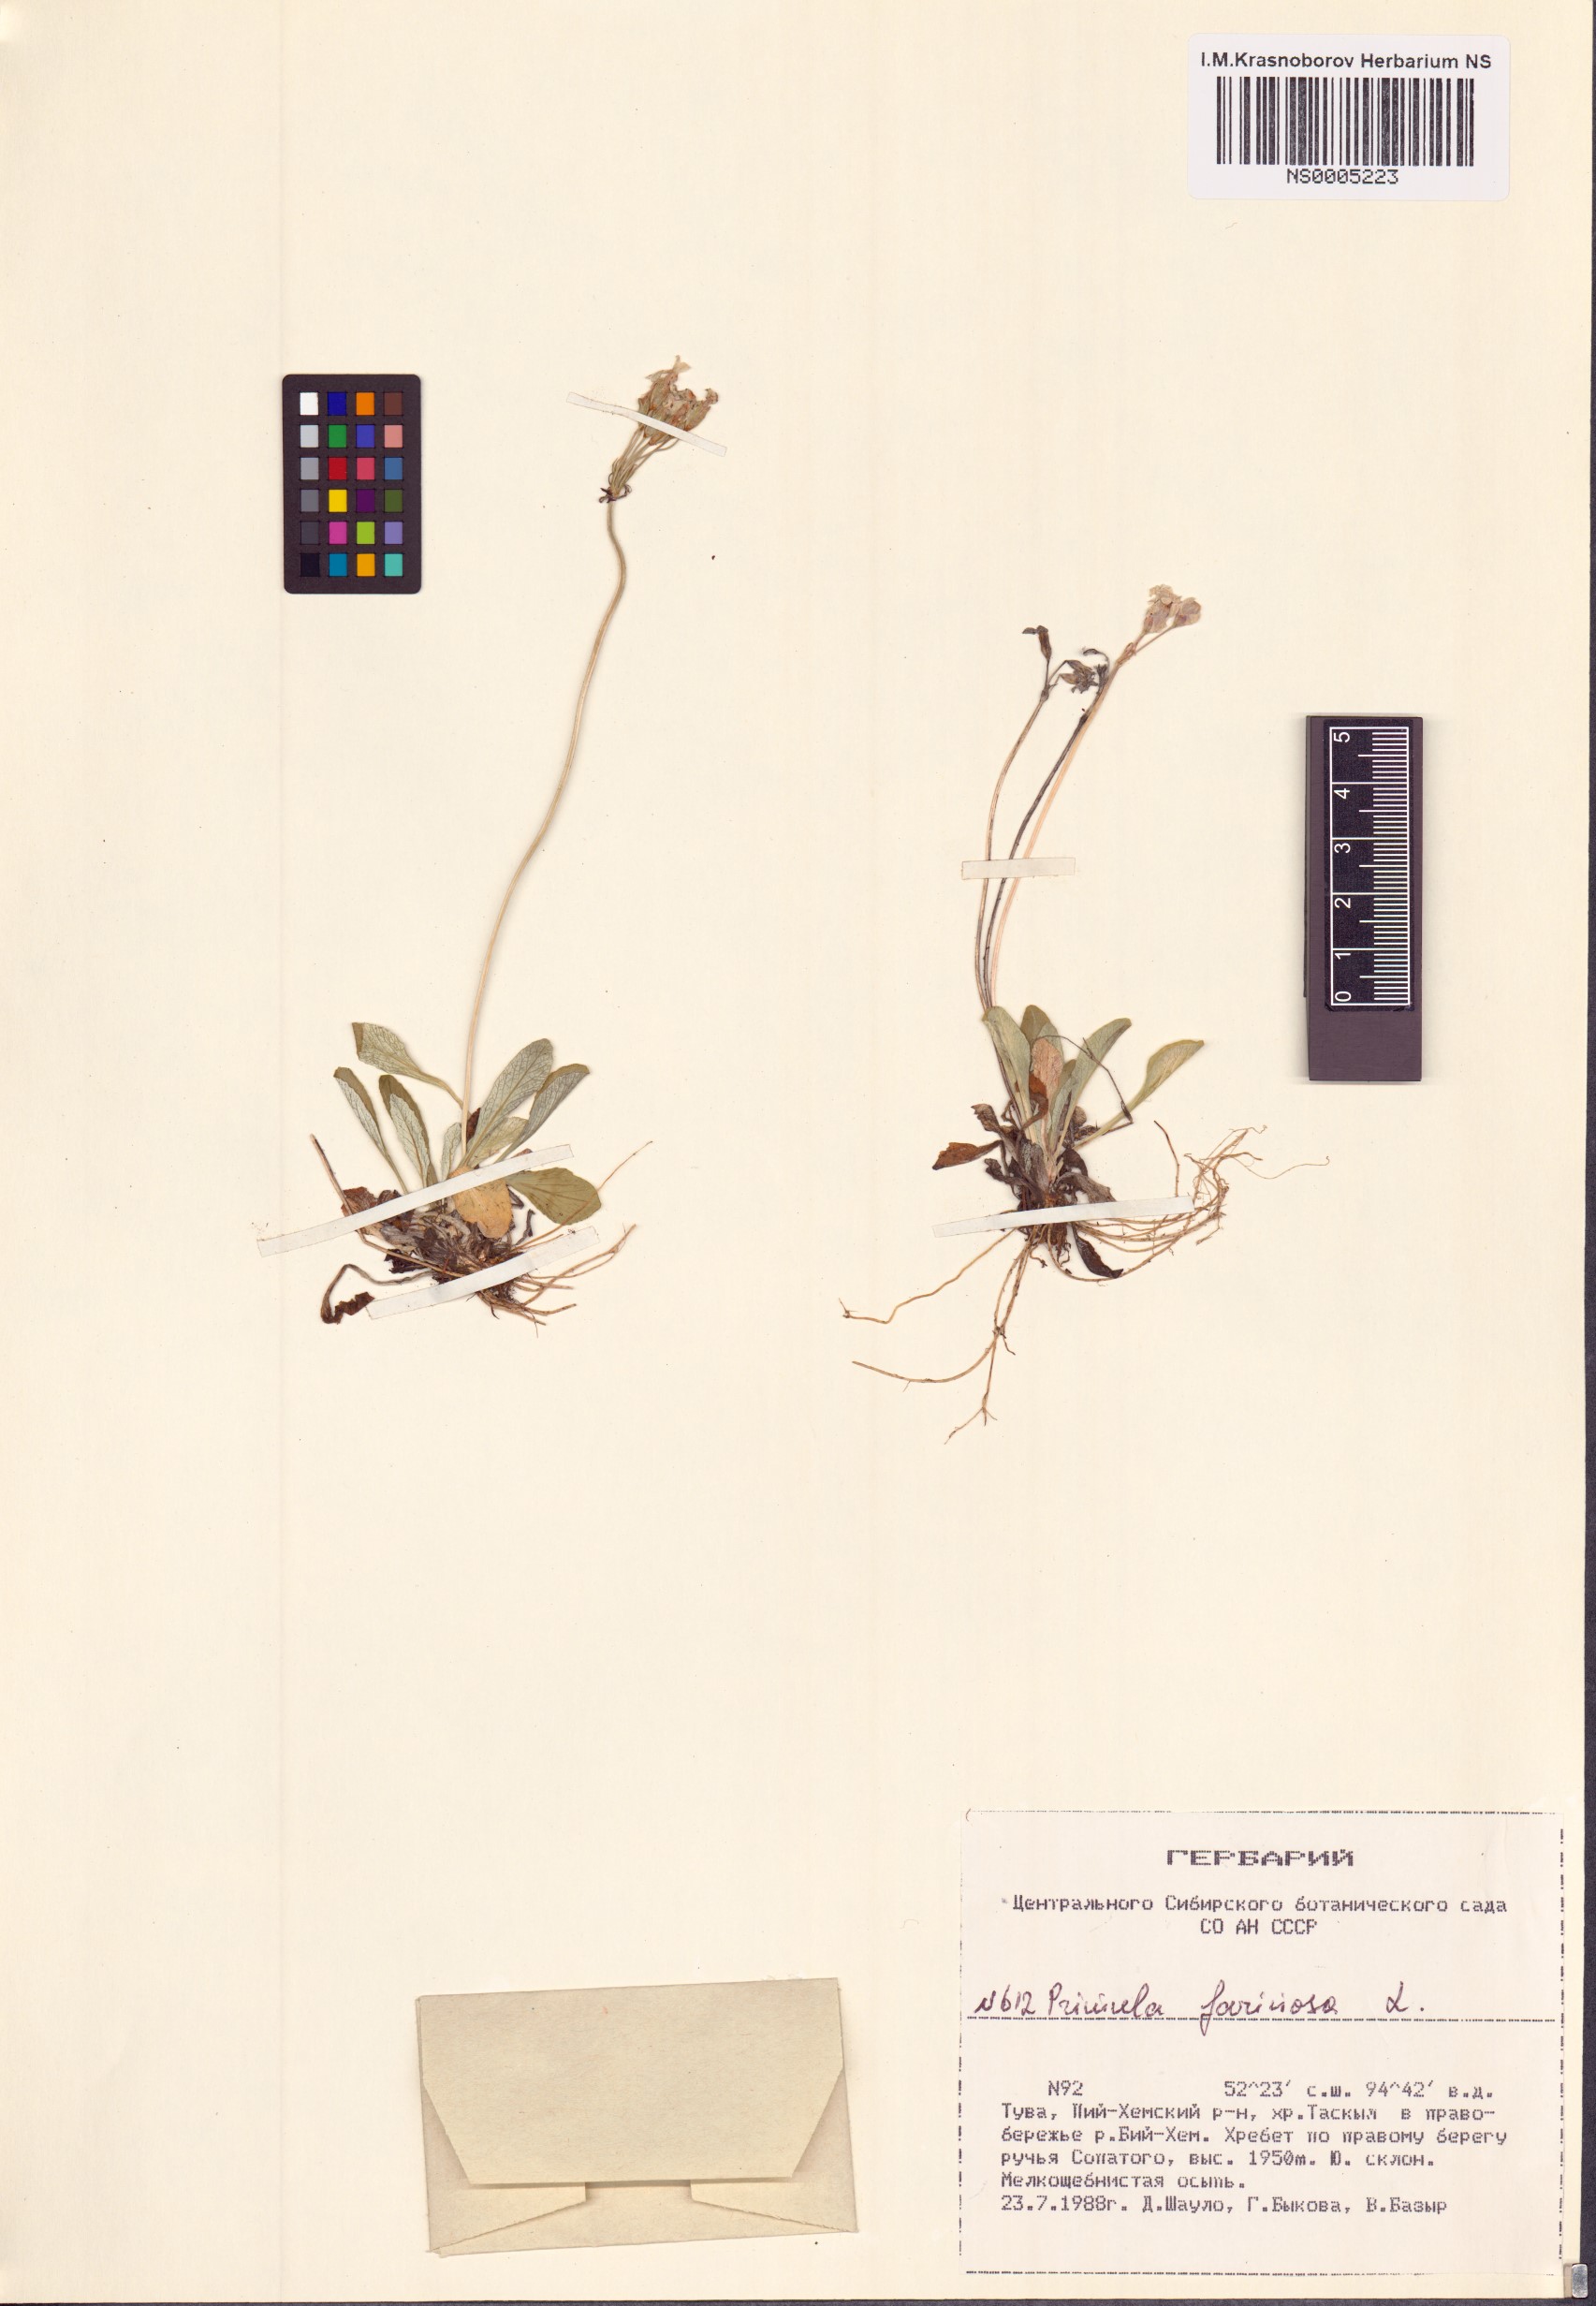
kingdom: Plantae
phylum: Tracheophyta
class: Magnoliopsida
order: Ericales
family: Primulaceae
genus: Primula
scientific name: Primula farinosa
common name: Bird's-eye primrose
